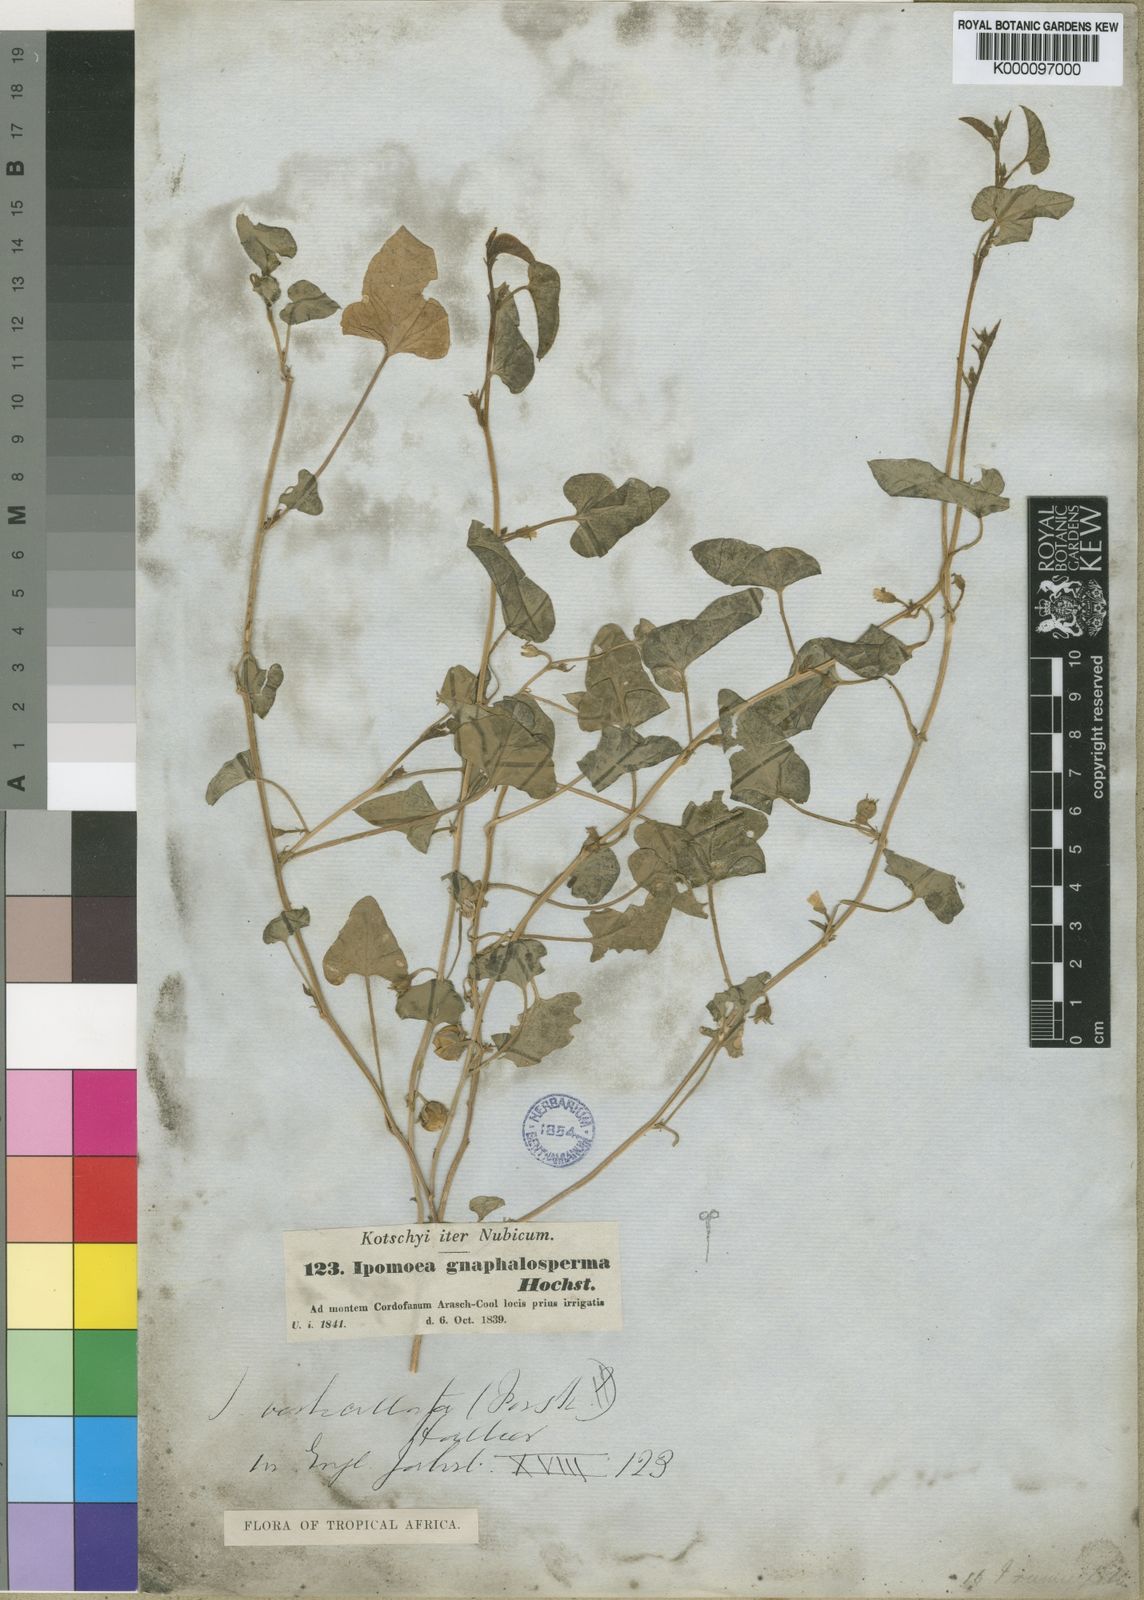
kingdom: Plantae
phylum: Tracheophyta
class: Magnoliopsida
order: Solanales
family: Convolvulaceae
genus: Ipomoea
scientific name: Ipomoea verticillata
